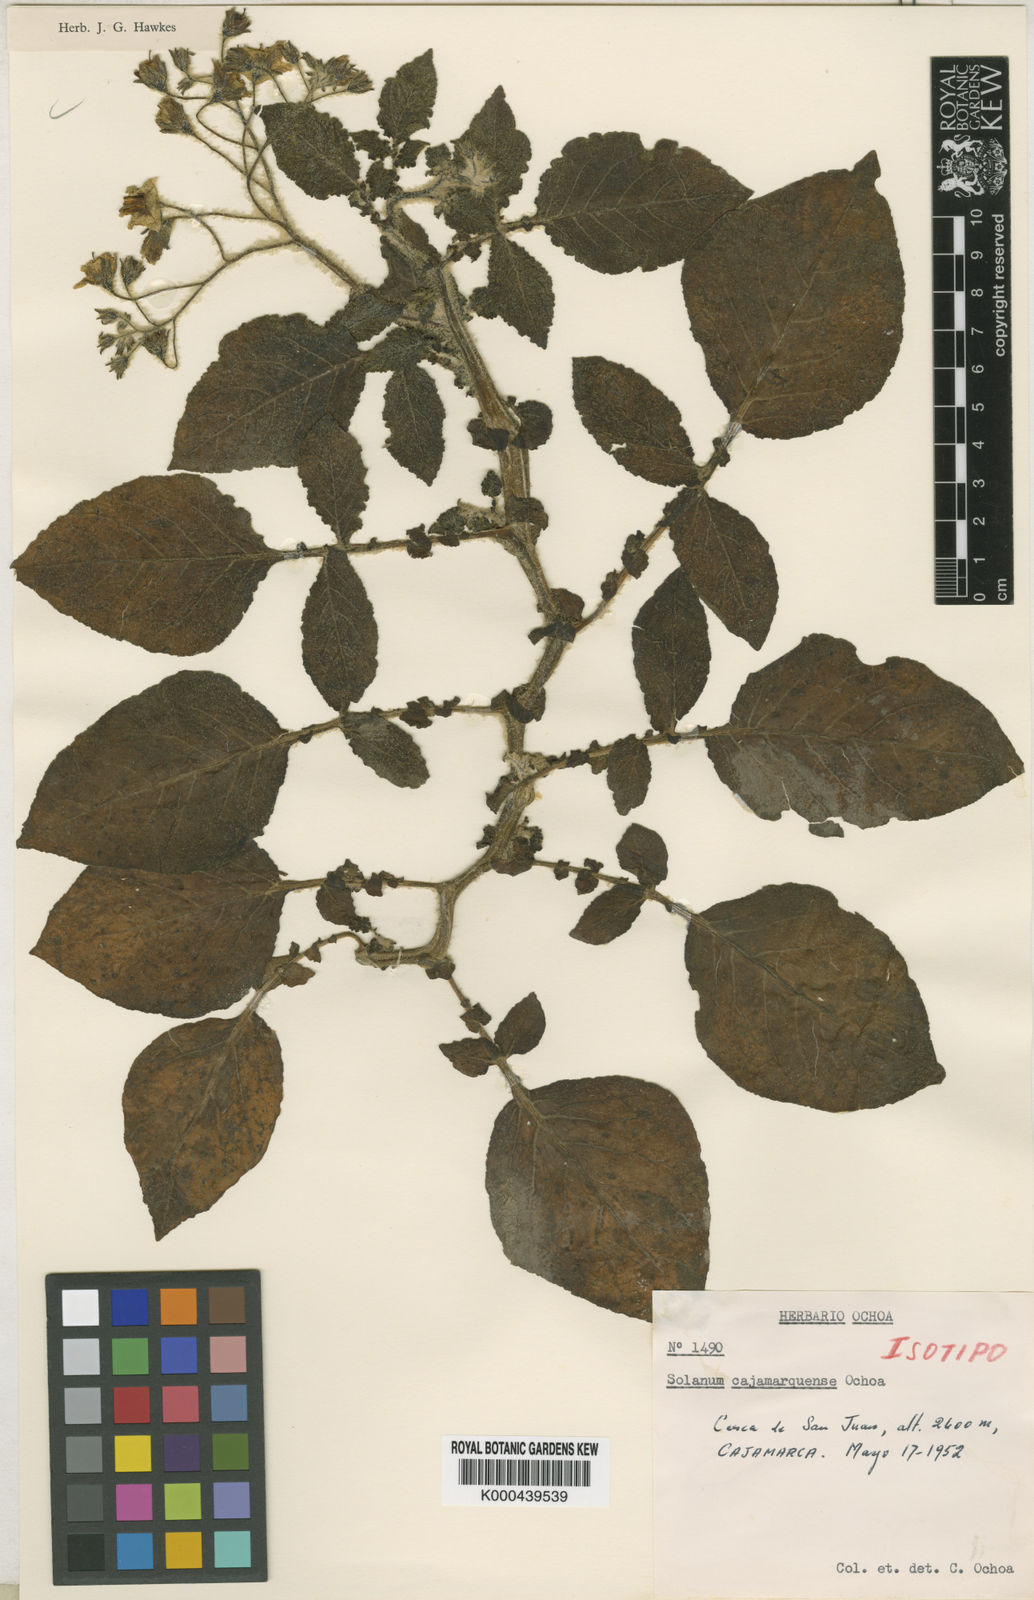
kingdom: Plantae
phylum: Tracheophyta
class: Magnoliopsida
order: Solanales
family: Solanaceae
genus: Solanum
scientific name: Solanum cajamarquense
